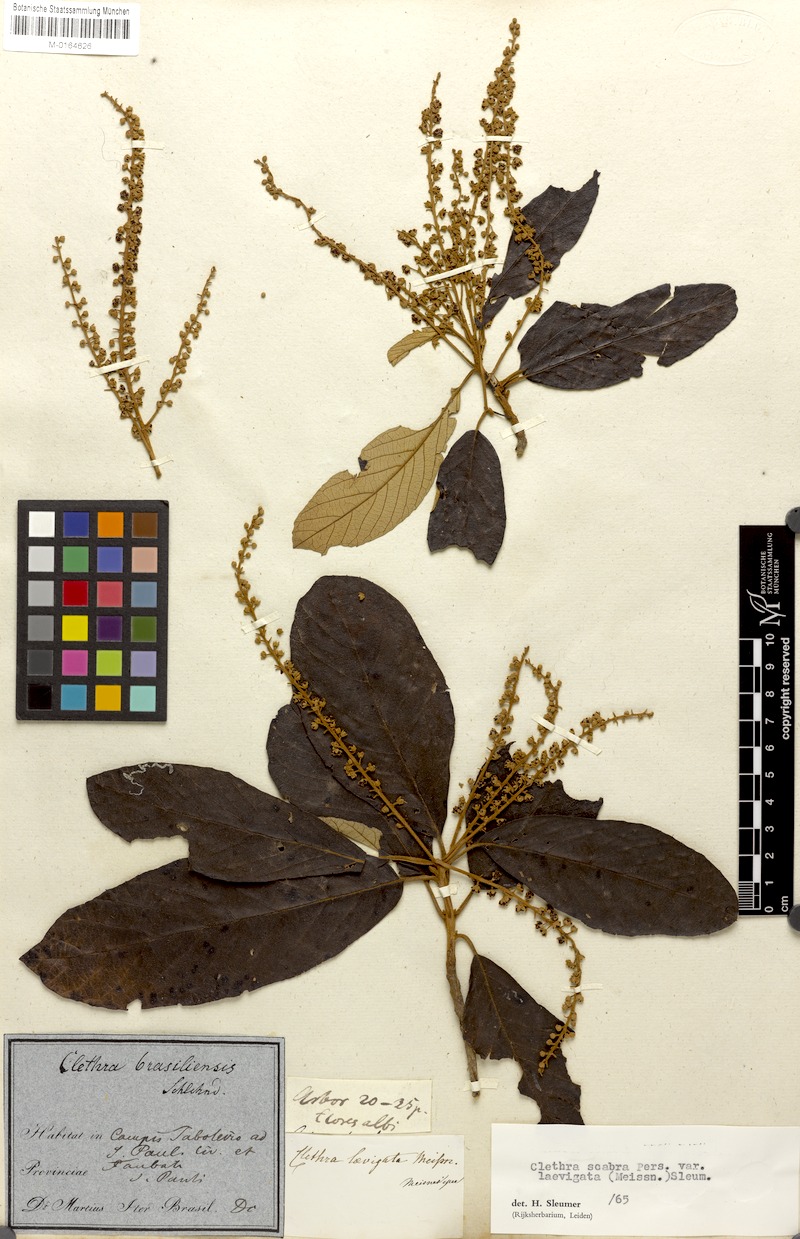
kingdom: Plantae
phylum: Tracheophyta
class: Magnoliopsida
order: Ericales
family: Clethraceae
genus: Clethra
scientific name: Clethra scabra
